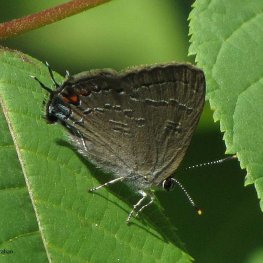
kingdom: Animalia
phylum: Arthropoda
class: Insecta
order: Lepidoptera
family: Lycaenidae
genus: Satyrium
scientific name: Satyrium calanus
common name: Banded Hairstreak
